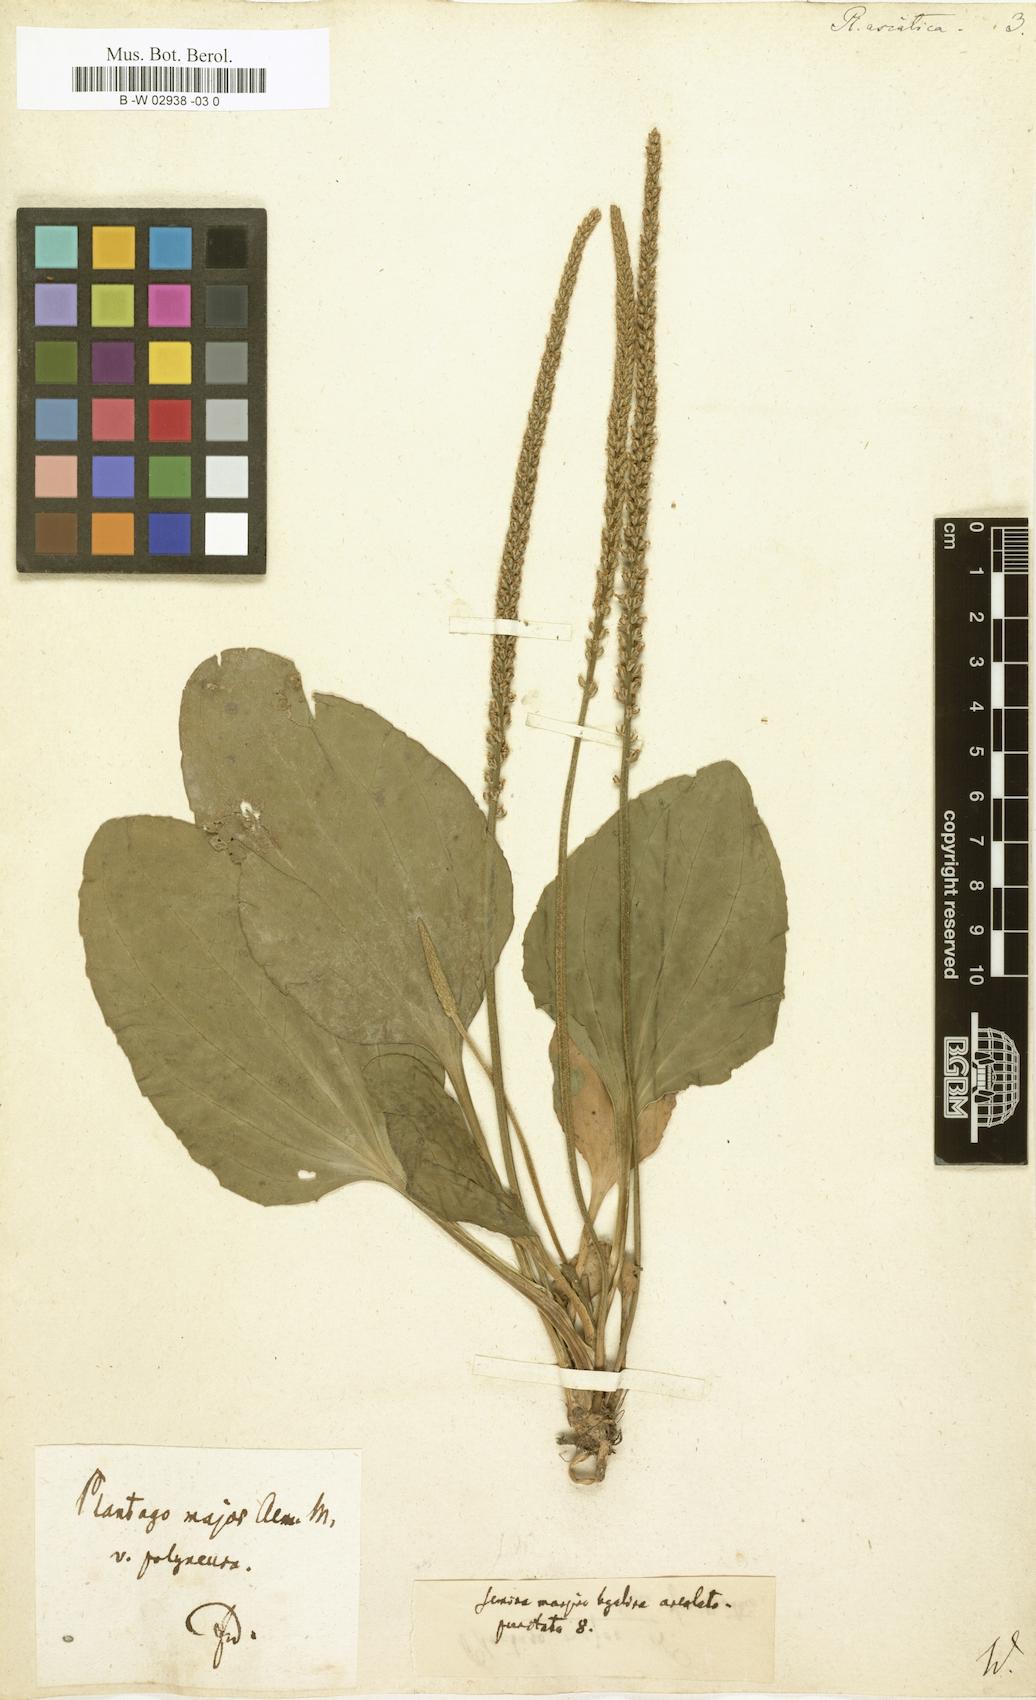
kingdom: Plantae
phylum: Tracheophyta
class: Magnoliopsida
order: Lamiales
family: Plantaginaceae
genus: Plantago
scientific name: Plantago asiatica
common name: Psyllium
